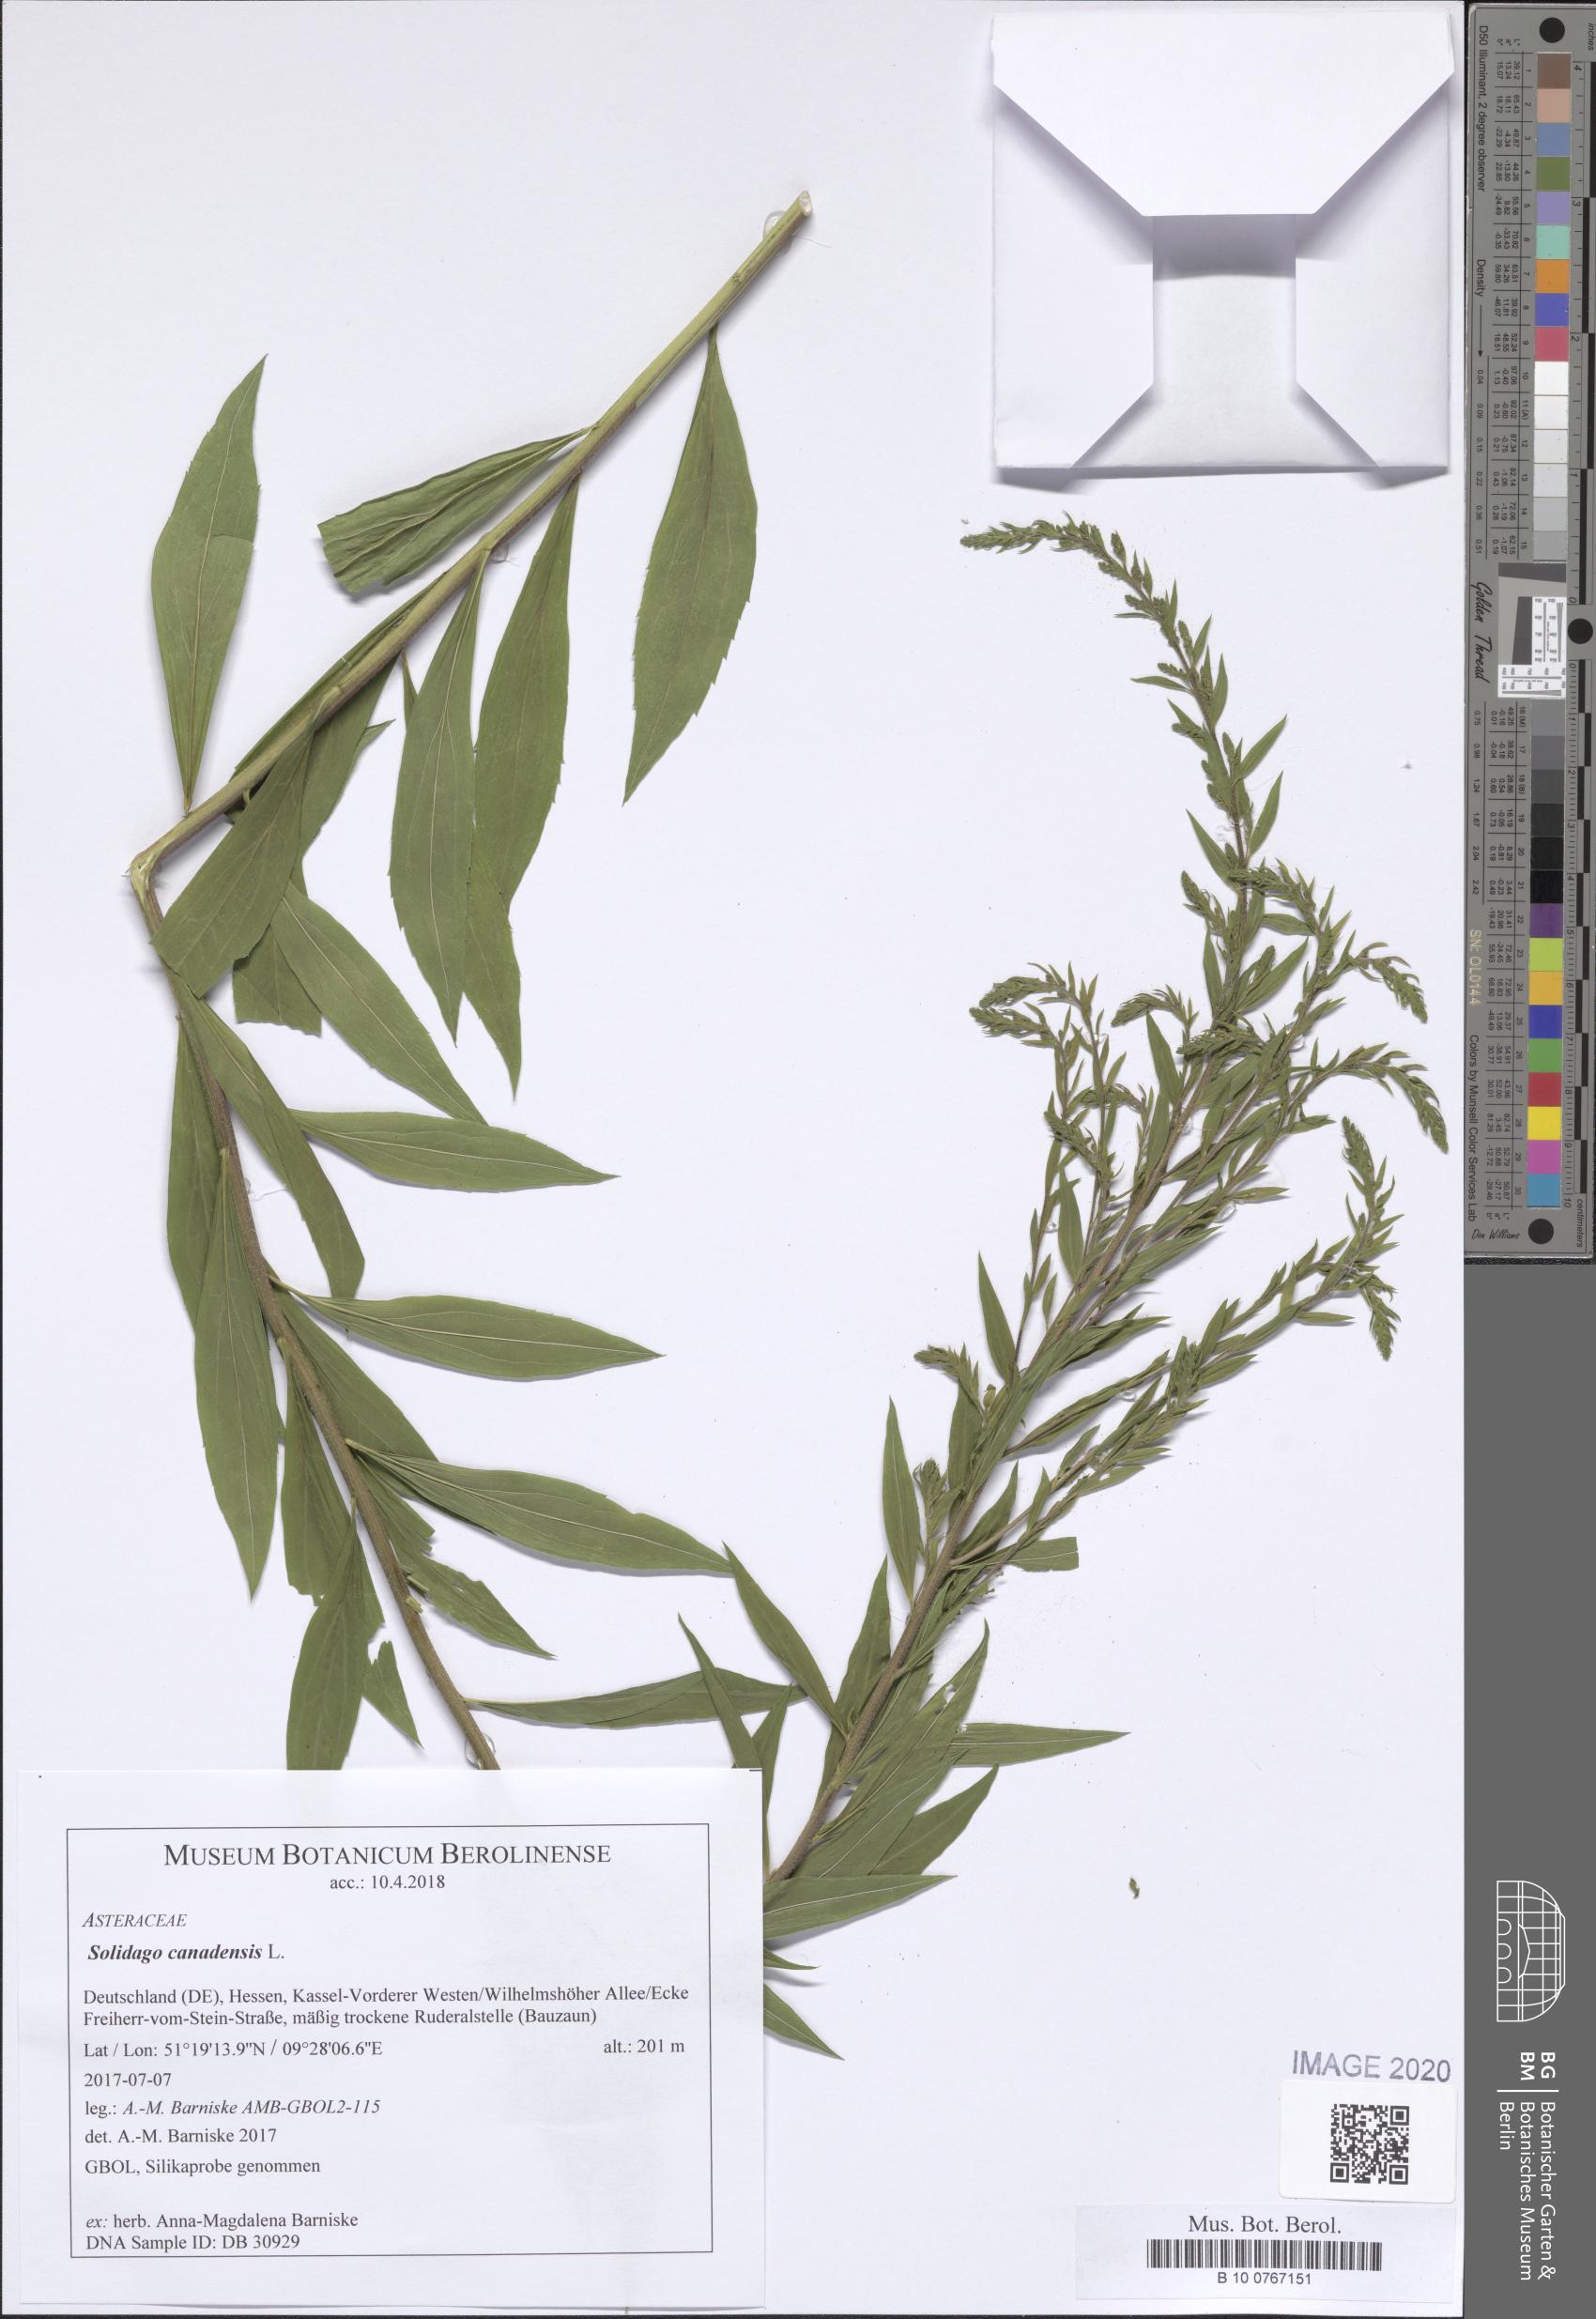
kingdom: Plantae
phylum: Tracheophyta
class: Magnoliopsida
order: Asterales
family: Asteraceae
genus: Solidago
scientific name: Solidago canadensis
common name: Canada goldenrod
